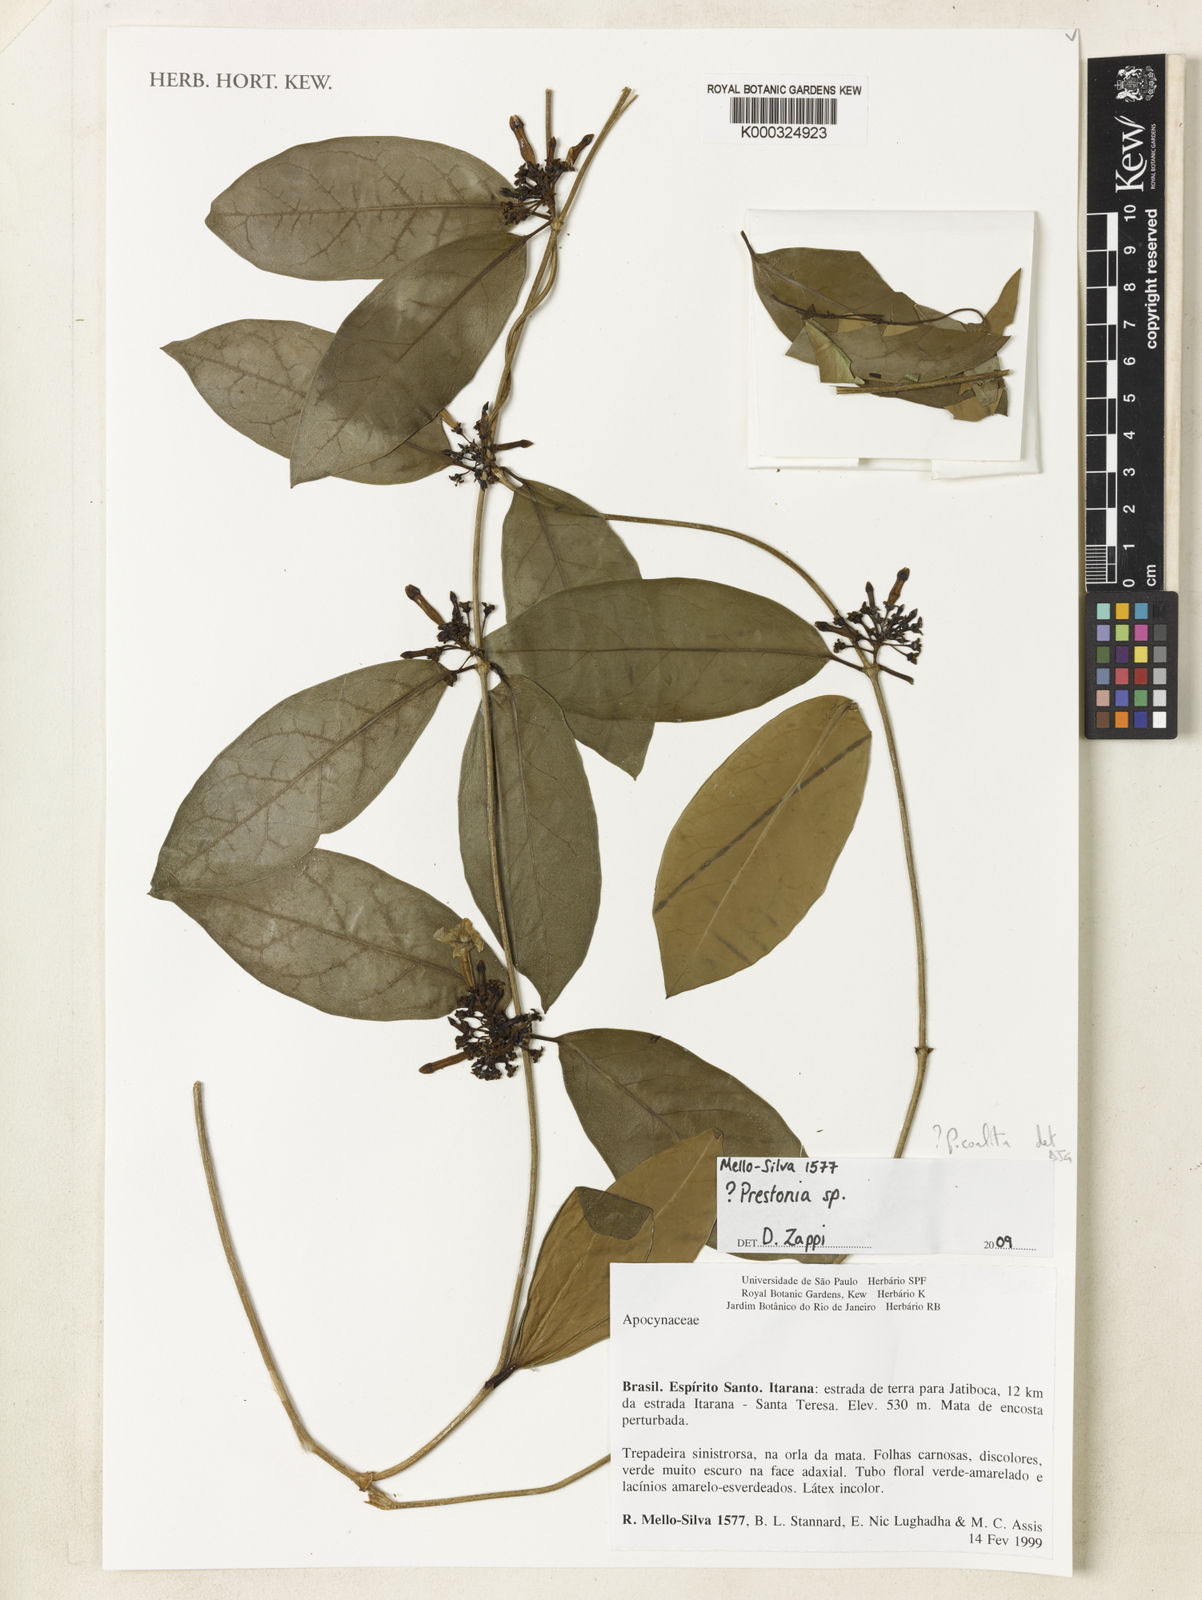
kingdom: Plantae
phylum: Tracheophyta
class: Magnoliopsida
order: Gentianales
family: Apocynaceae
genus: Prestonia
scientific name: Prestonia
